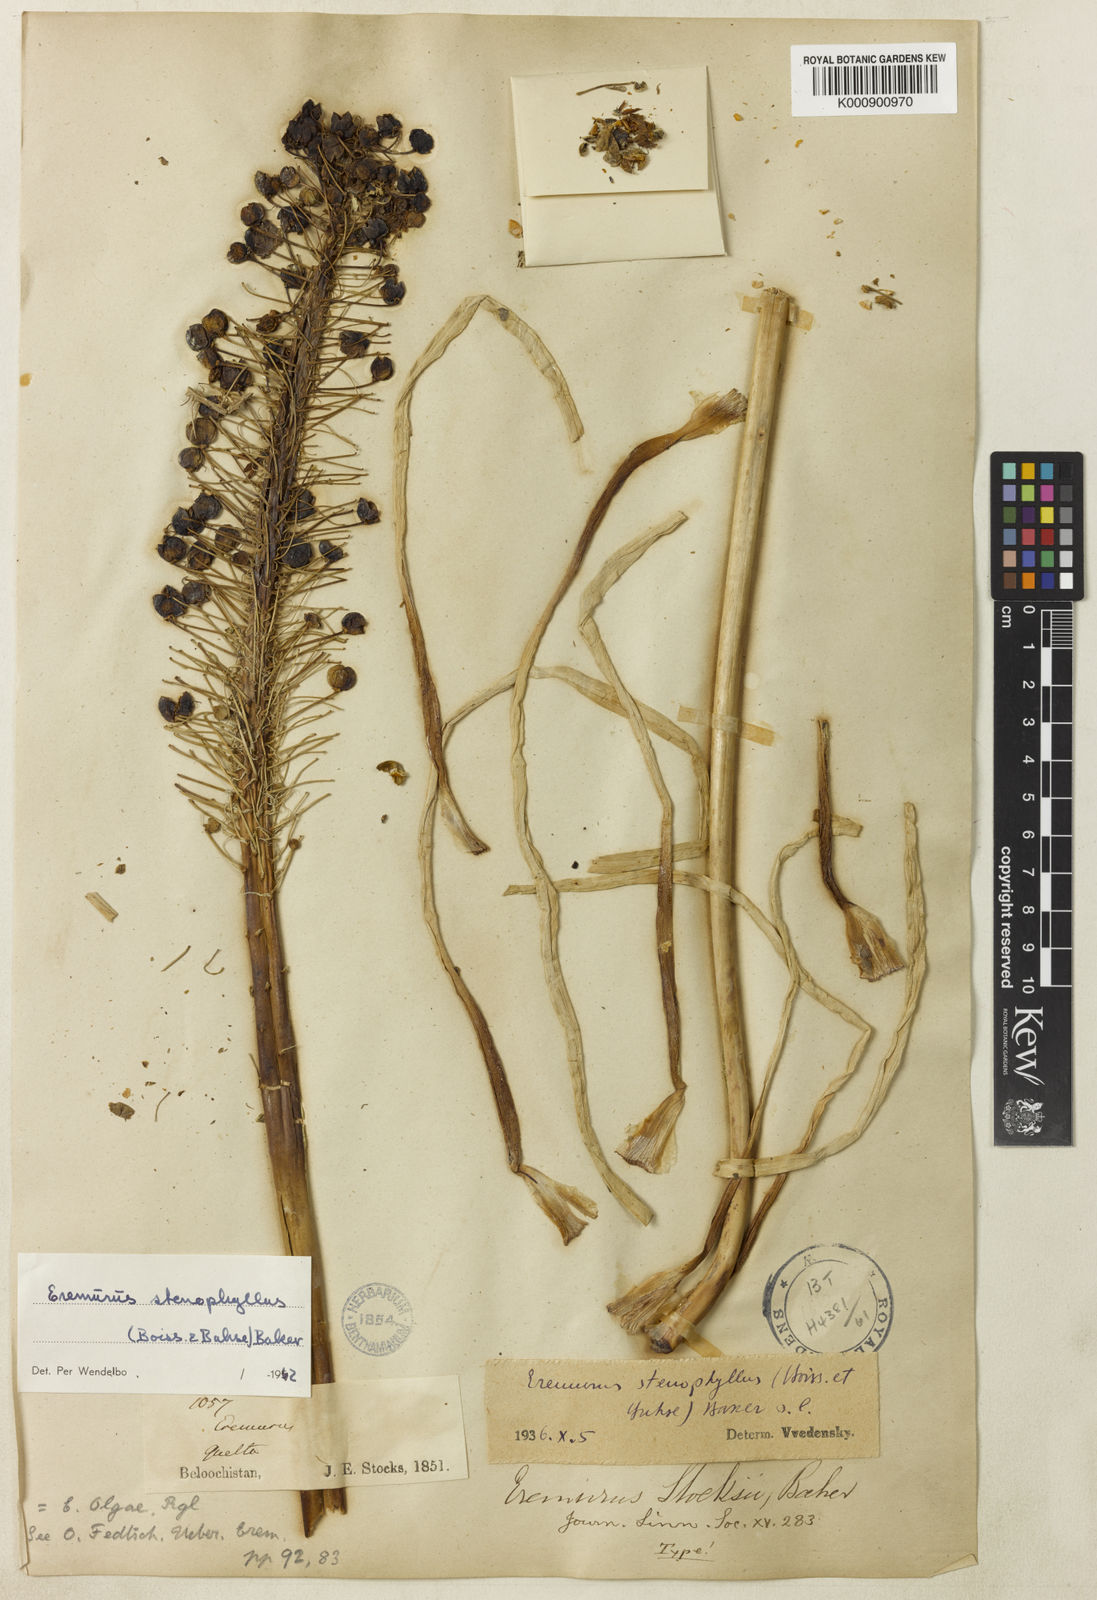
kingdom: Plantae
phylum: Tracheophyta
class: Liliopsida
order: Asparagales
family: Asphodelaceae
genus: Eremurus
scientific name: Eremurus stenophyllus
